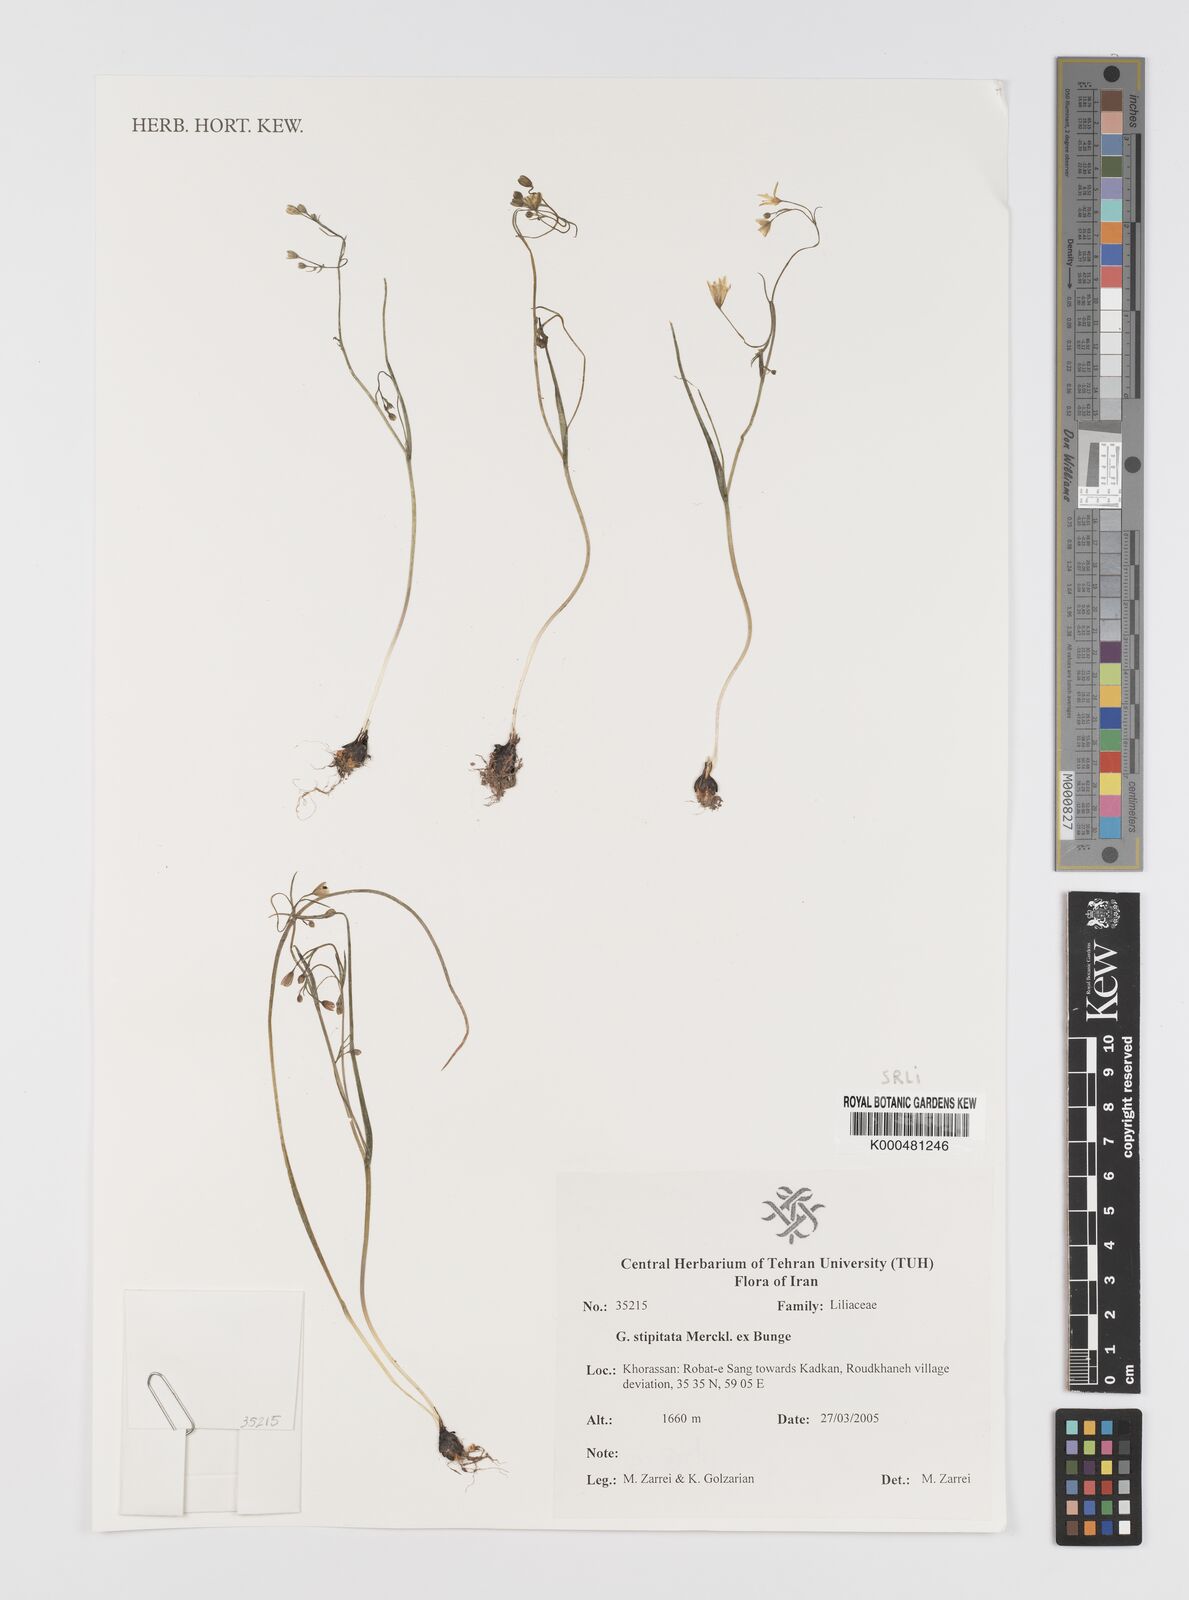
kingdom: Plantae
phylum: Tracheophyta
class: Liliopsida
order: Liliales
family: Liliaceae
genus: Gagea
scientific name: Gagea kunawurensis
